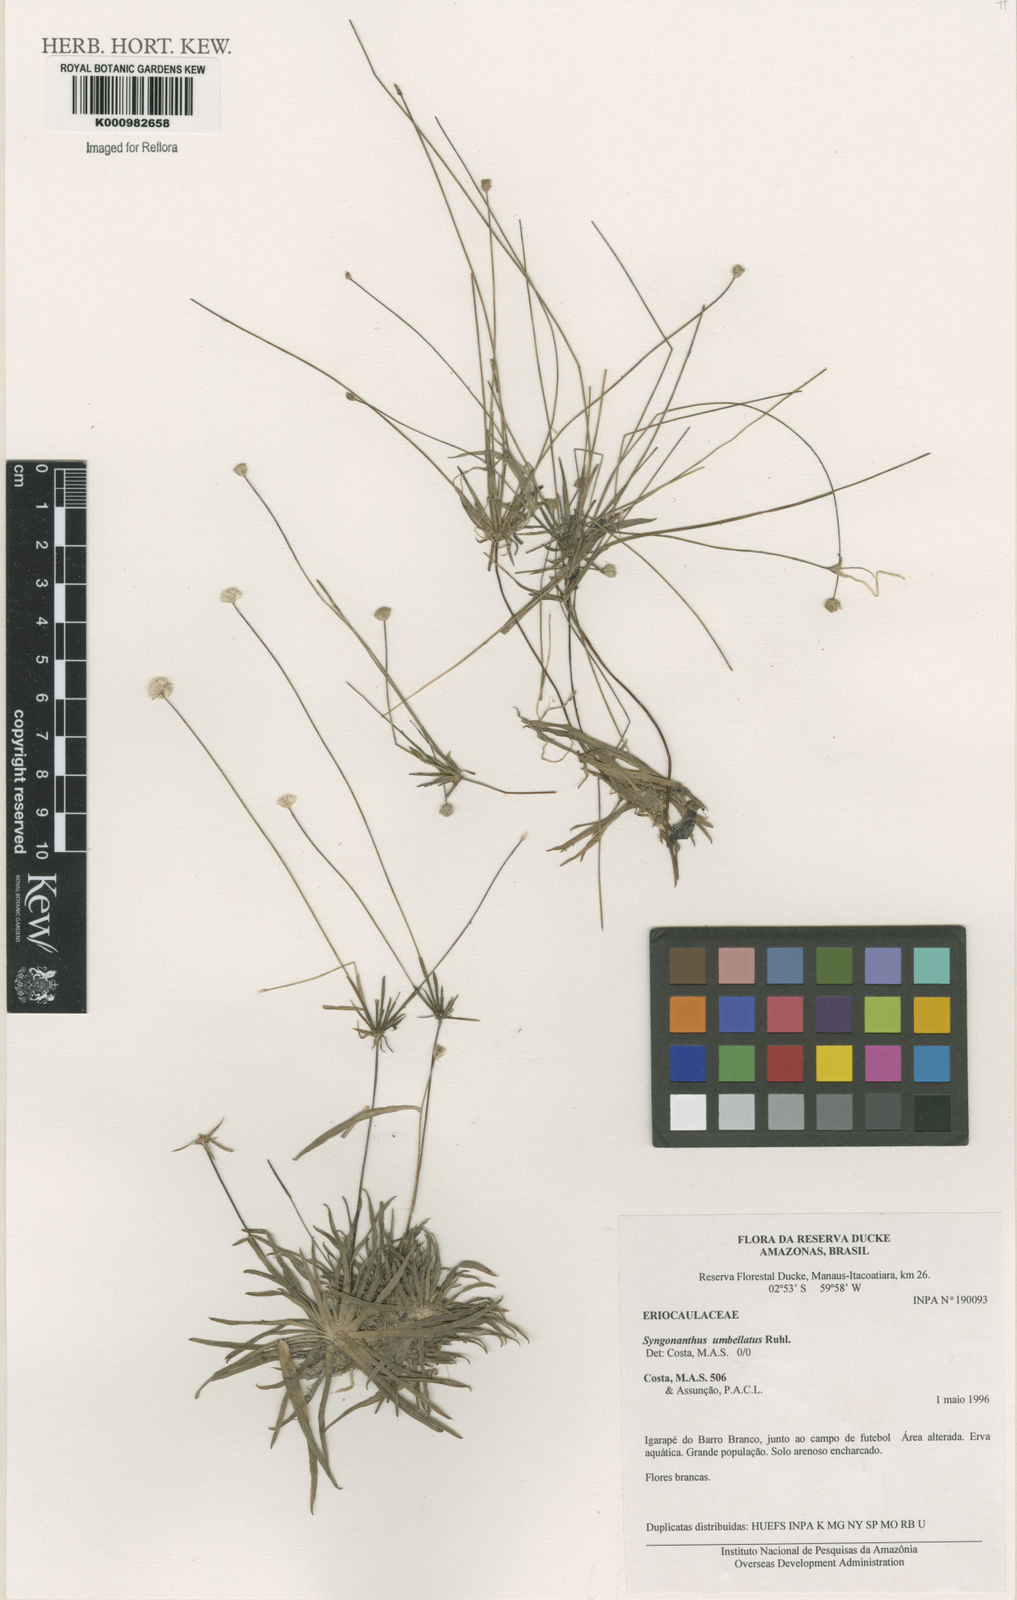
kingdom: Plantae
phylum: Tracheophyta
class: Liliopsida
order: Poales
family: Eriocaulaceae
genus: Syngonanthus
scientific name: Syngonanthus umbellatus
